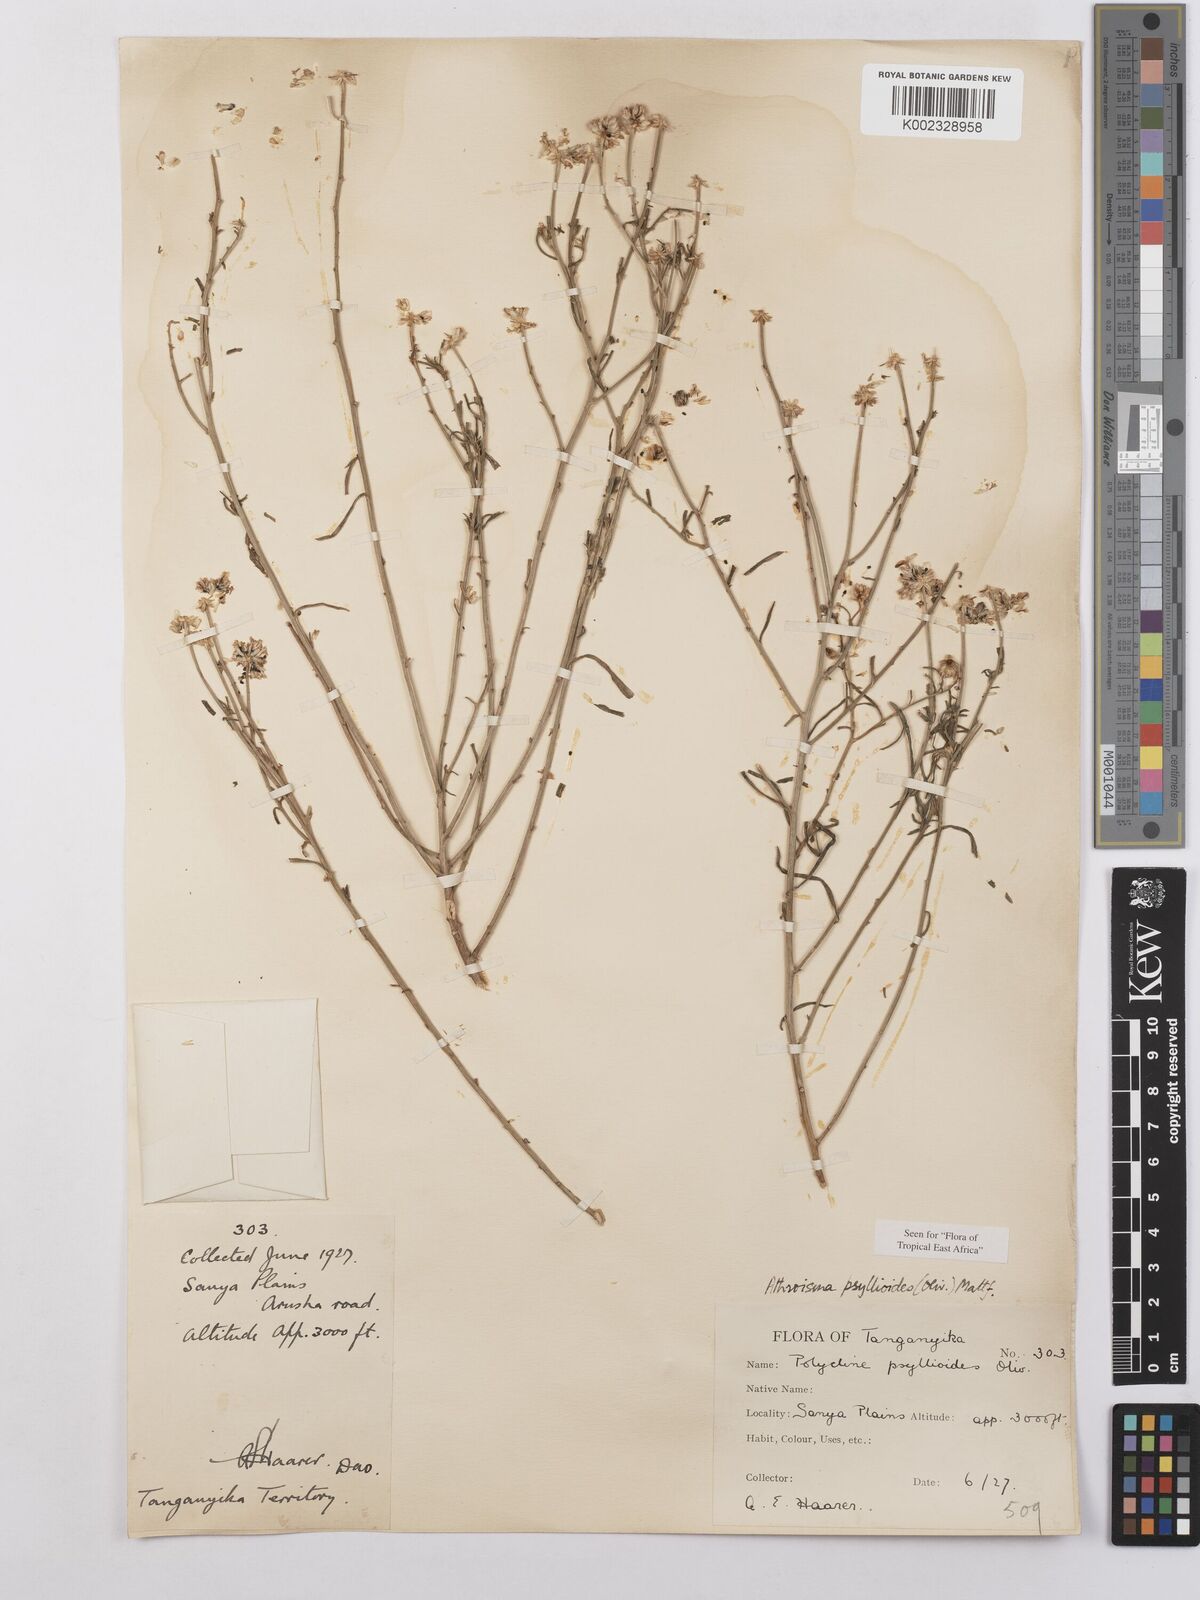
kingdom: Plantae
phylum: Tracheophyta
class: Magnoliopsida
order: Asterales
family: Asteraceae
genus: Athroisma
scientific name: Athroisma gracile
